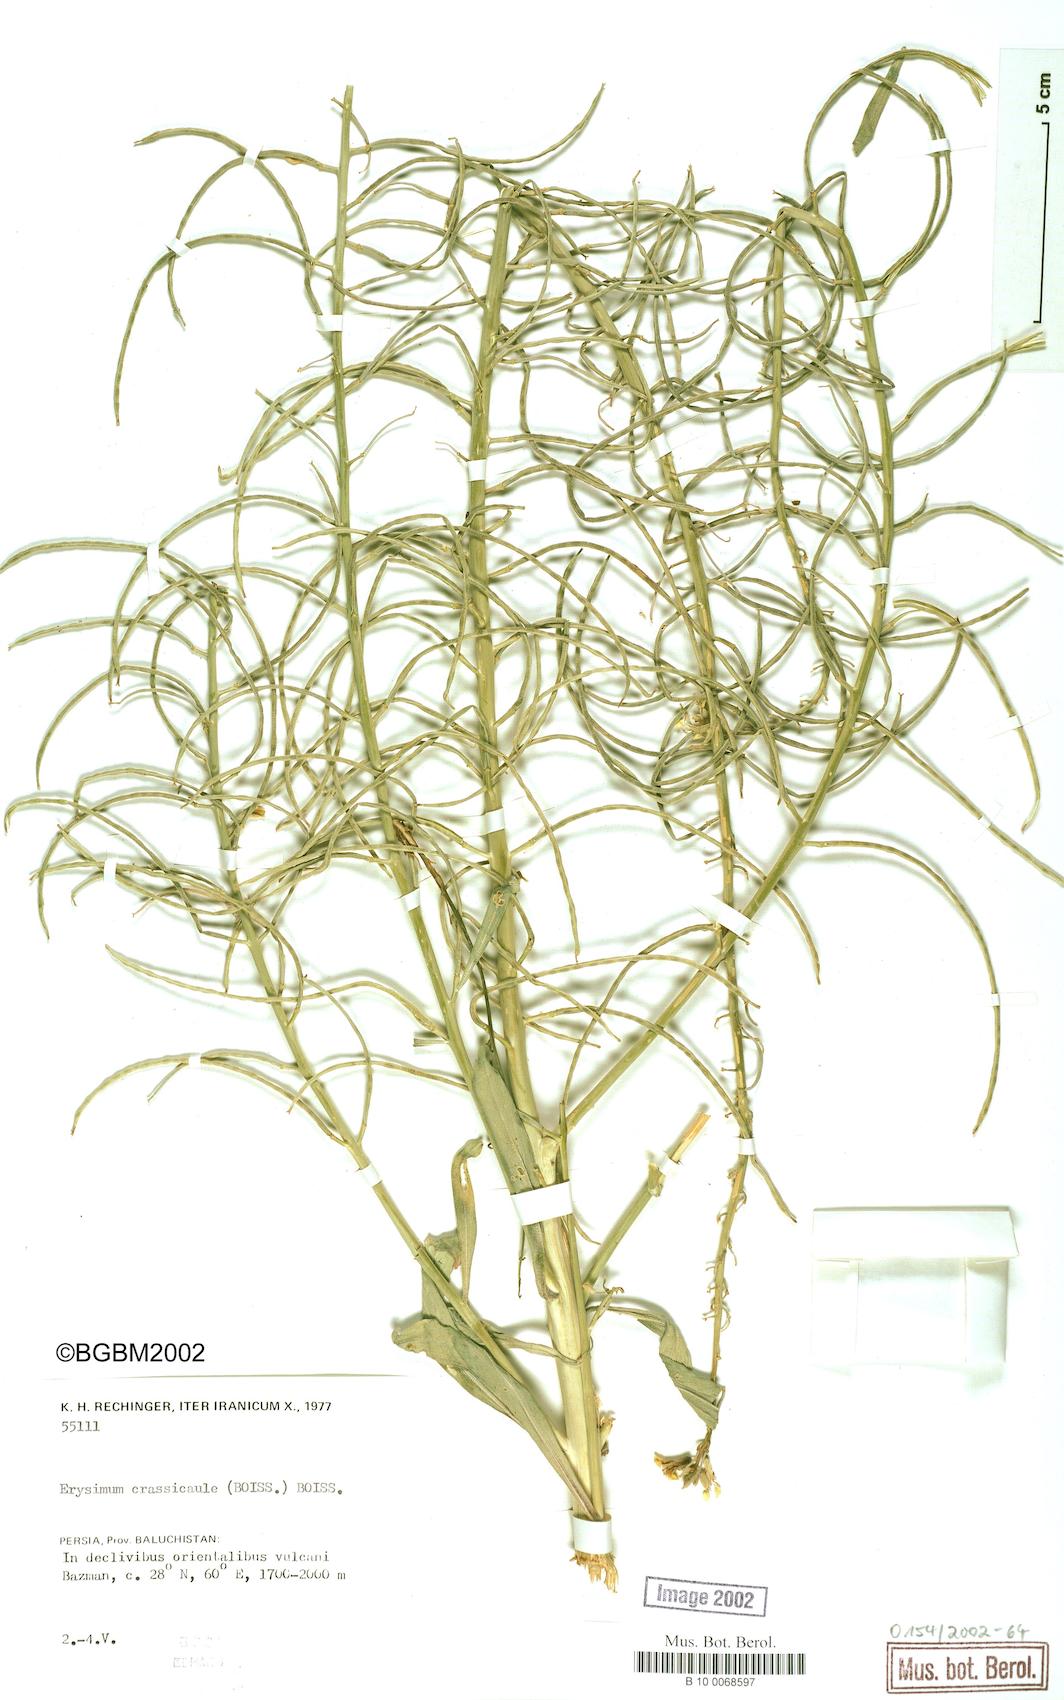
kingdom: Plantae
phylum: Tracheophyta
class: Magnoliopsida
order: Brassicales
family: Brassicaceae
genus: Erysimum
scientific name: Erysimum crassicaule
